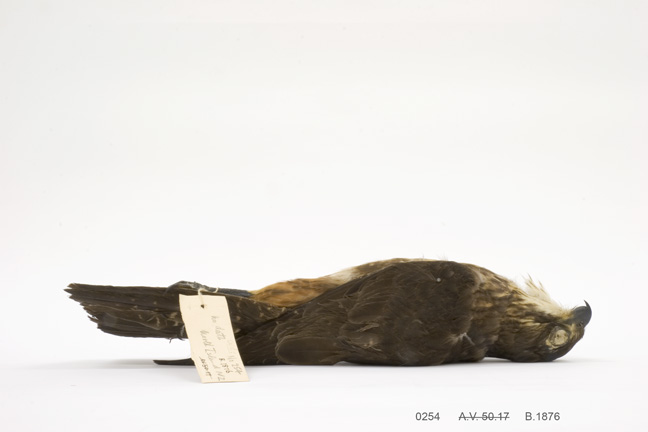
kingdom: Animalia
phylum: Chordata
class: Aves
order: Falconiformes
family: Falconidae
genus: Falco
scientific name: Falco novaeseelandiae
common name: New zealand falcon
